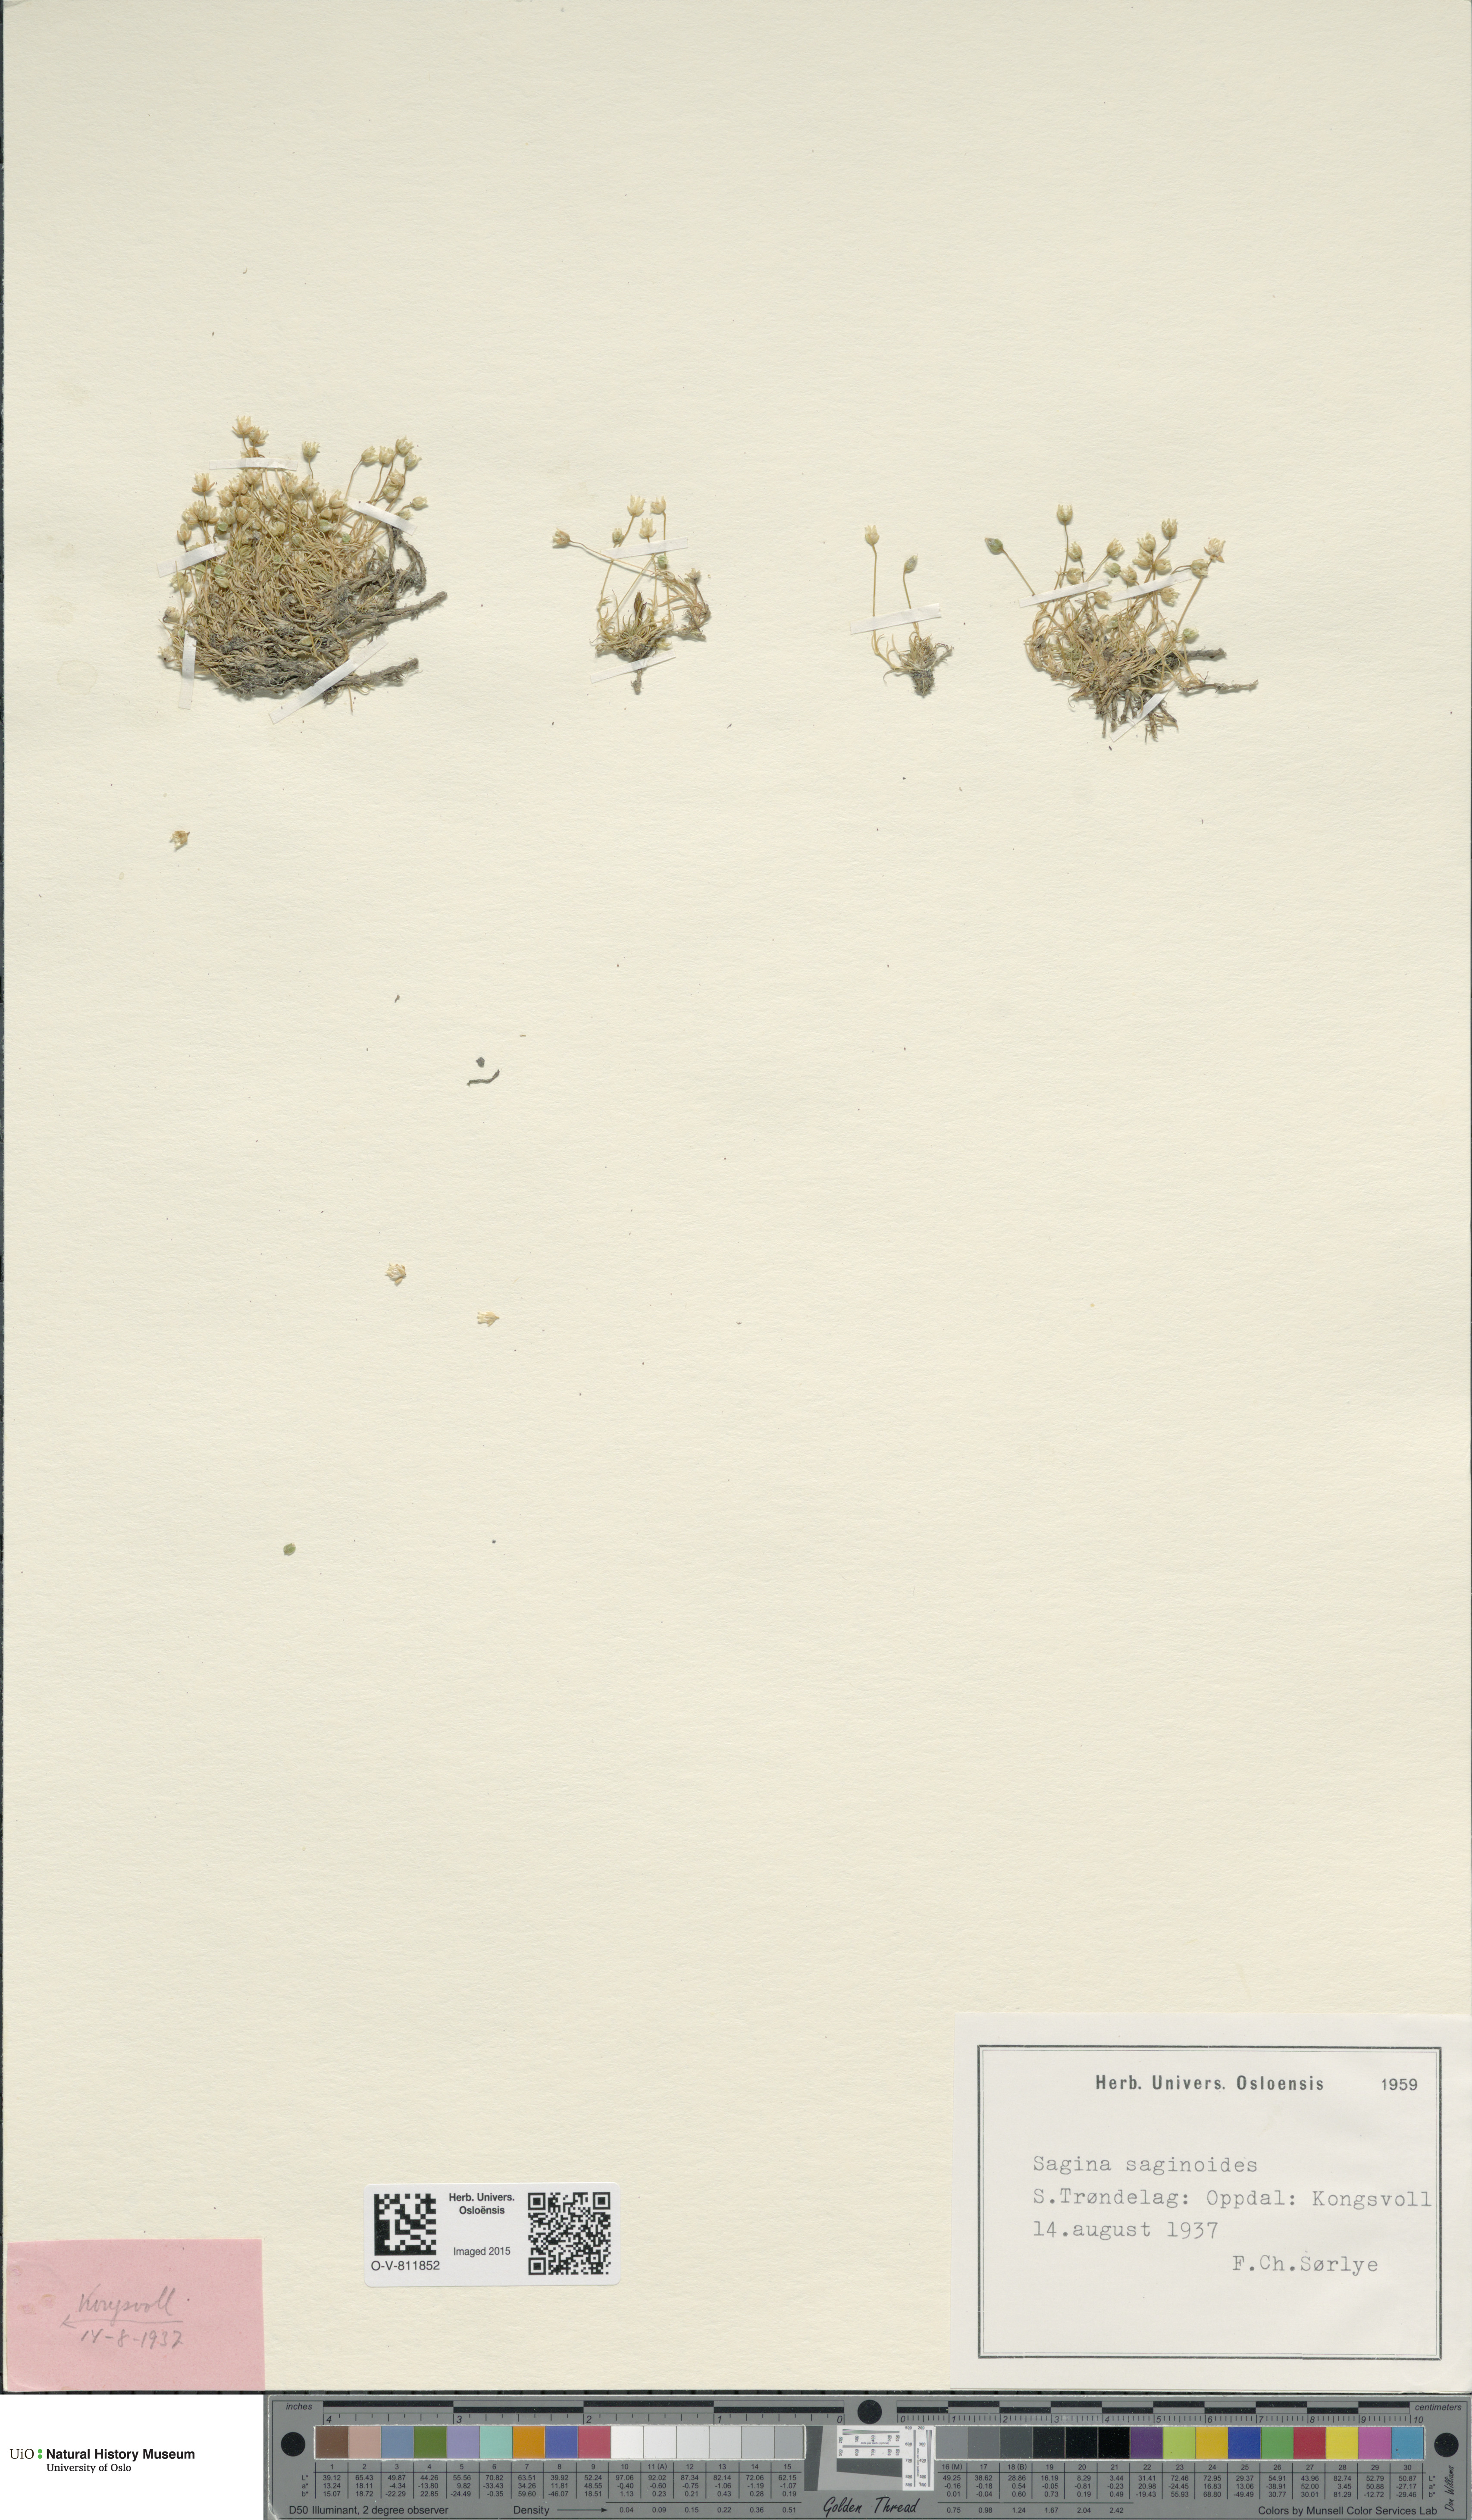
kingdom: Plantae
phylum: Tracheophyta
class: Magnoliopsida
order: Caryophyllales
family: Caryophyllaceae
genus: Sagina
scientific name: Sagina saginoides
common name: Alpine pearlwort
